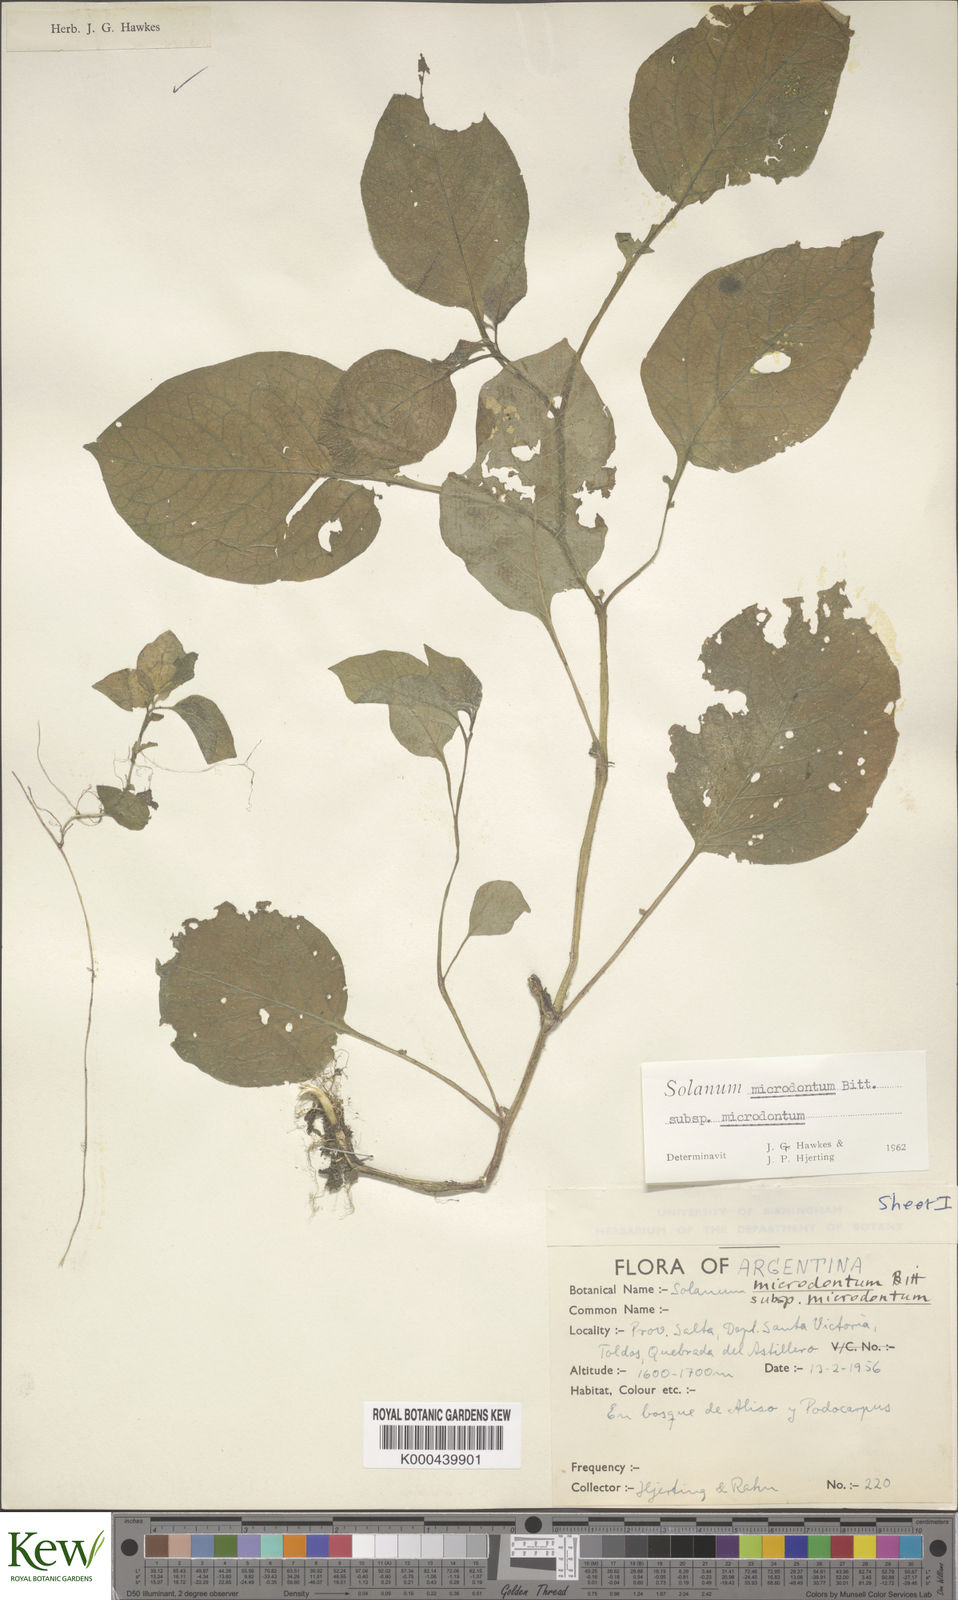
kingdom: Plantae
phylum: Tracheophyta
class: Magnoliopsida
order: Solanales
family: Solanaceae
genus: Solanum
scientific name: Solanum microdontum
